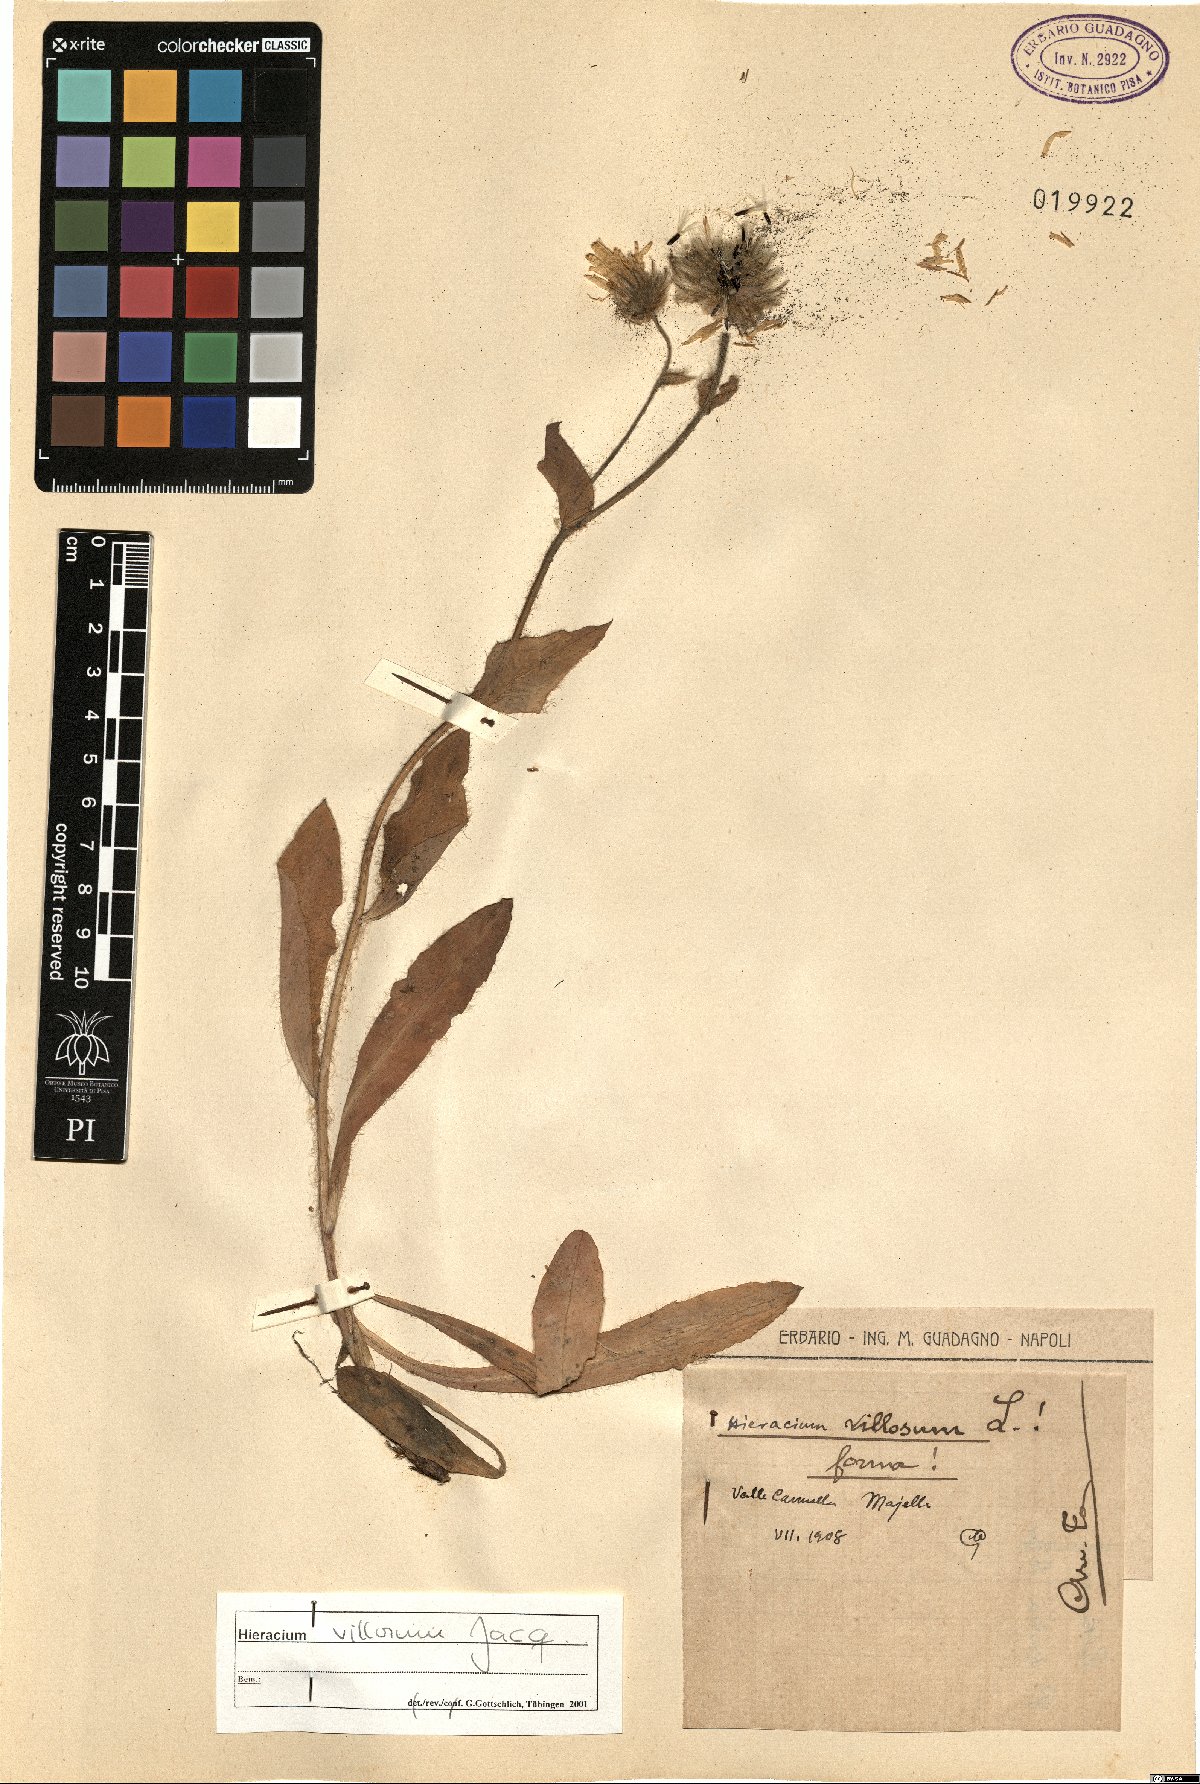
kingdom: Plantae
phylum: Tracheophyta
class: Magnoliopsida
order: Asterales
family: Asteraceae
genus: Hieracium
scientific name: Hieracium villosum
